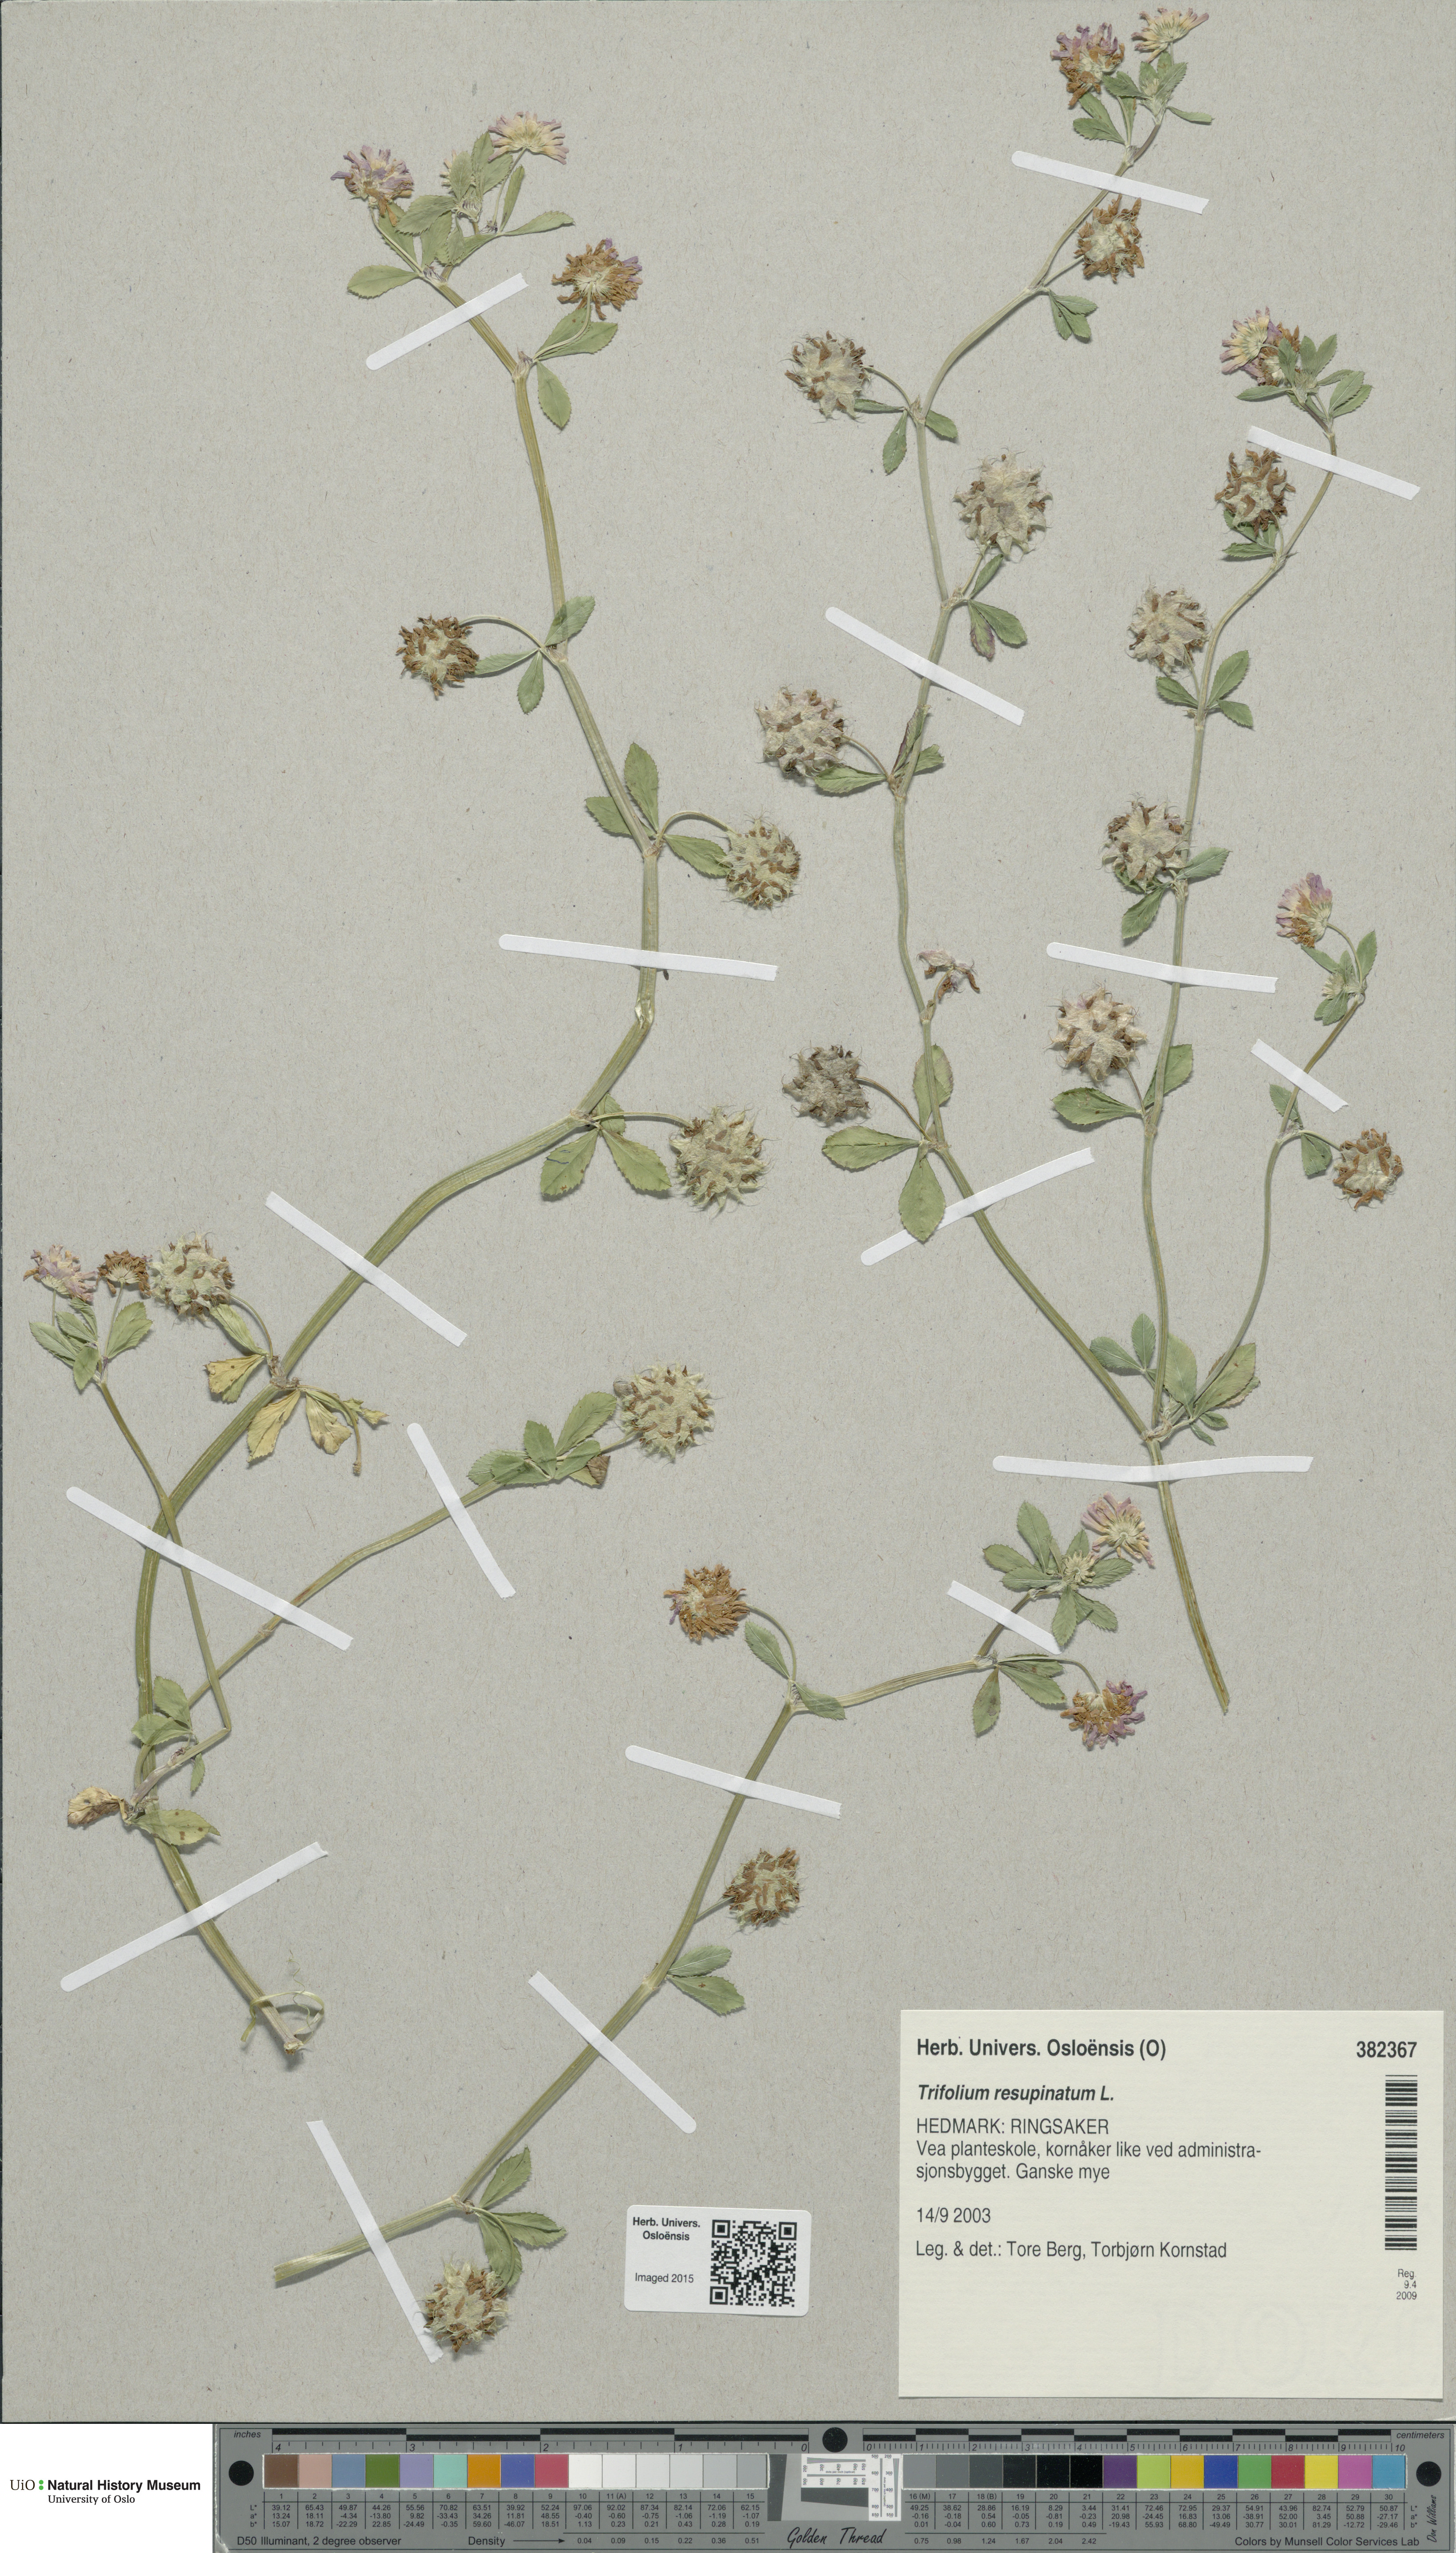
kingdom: Plantae
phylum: Tracheophyta
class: Magnoliopsida
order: Fabales
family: Fabaceae
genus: Trifolium
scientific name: Trifolium resupinatum
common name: Reversed clover
